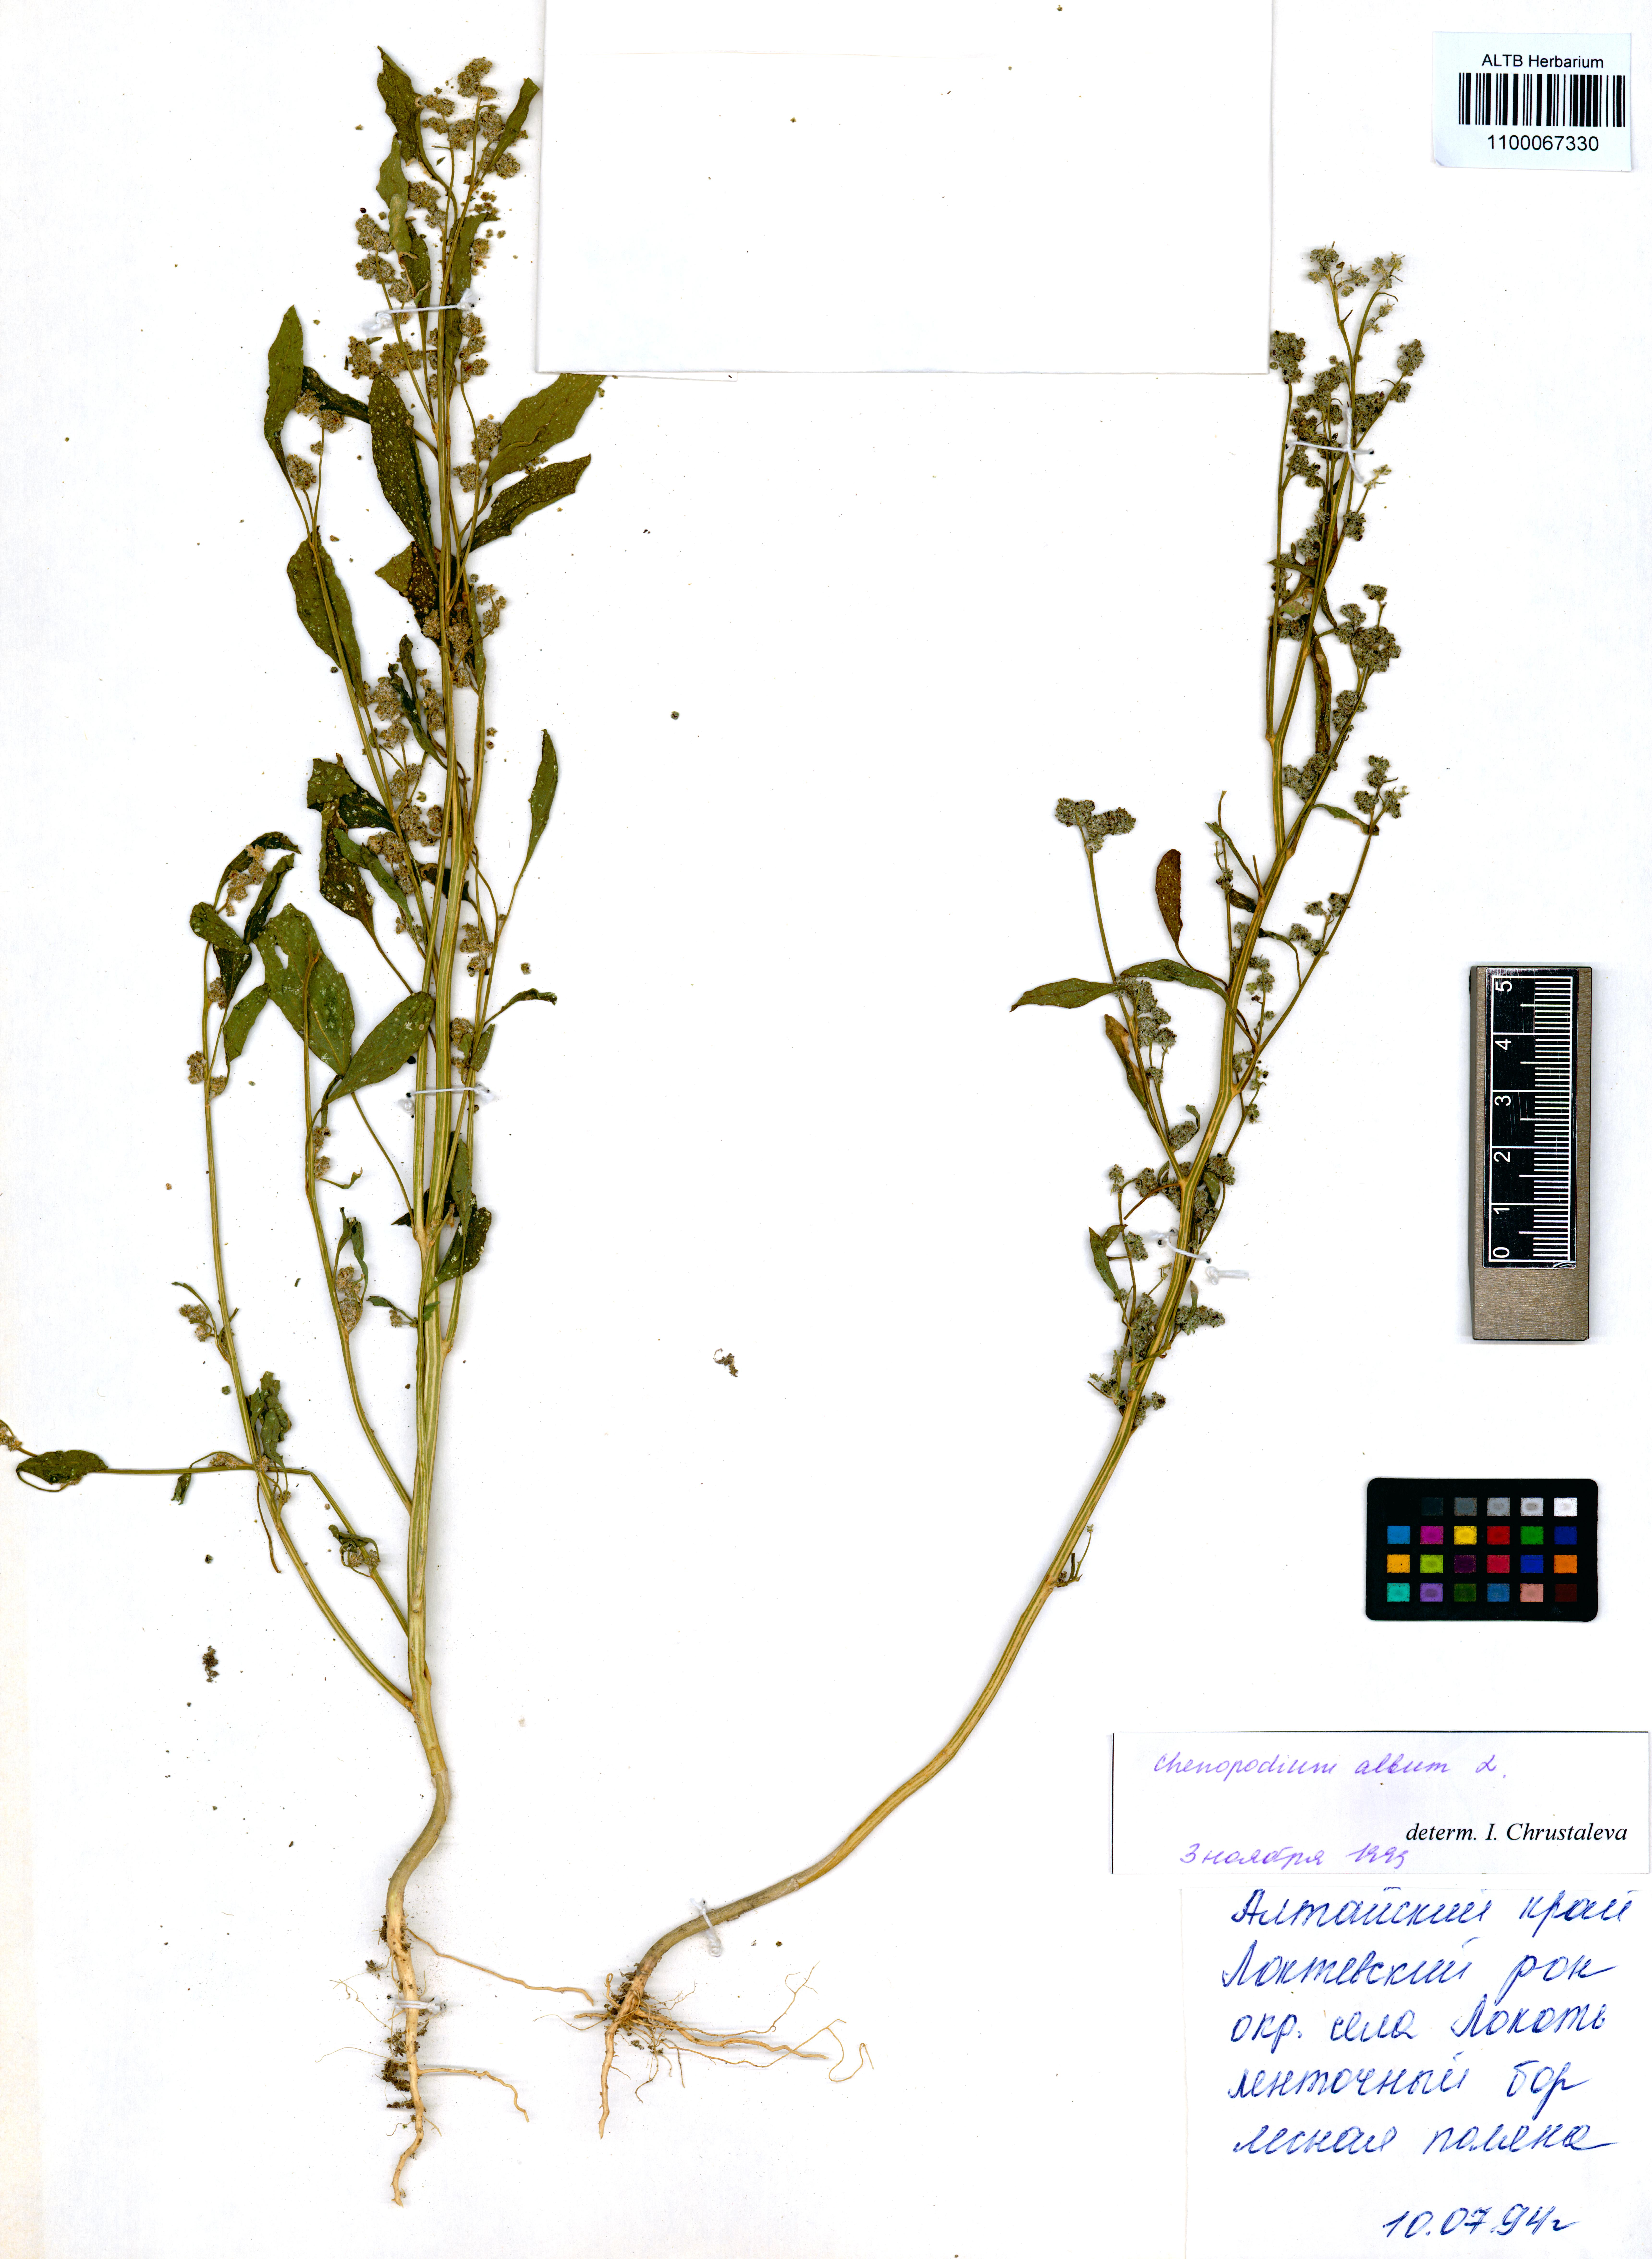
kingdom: Plantae
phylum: Tracheophyta
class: Magnoliopsida
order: Caryophyllales
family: Amaranthaceae
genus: Chenopodium
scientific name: Chenopodium album
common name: Fat-hen
